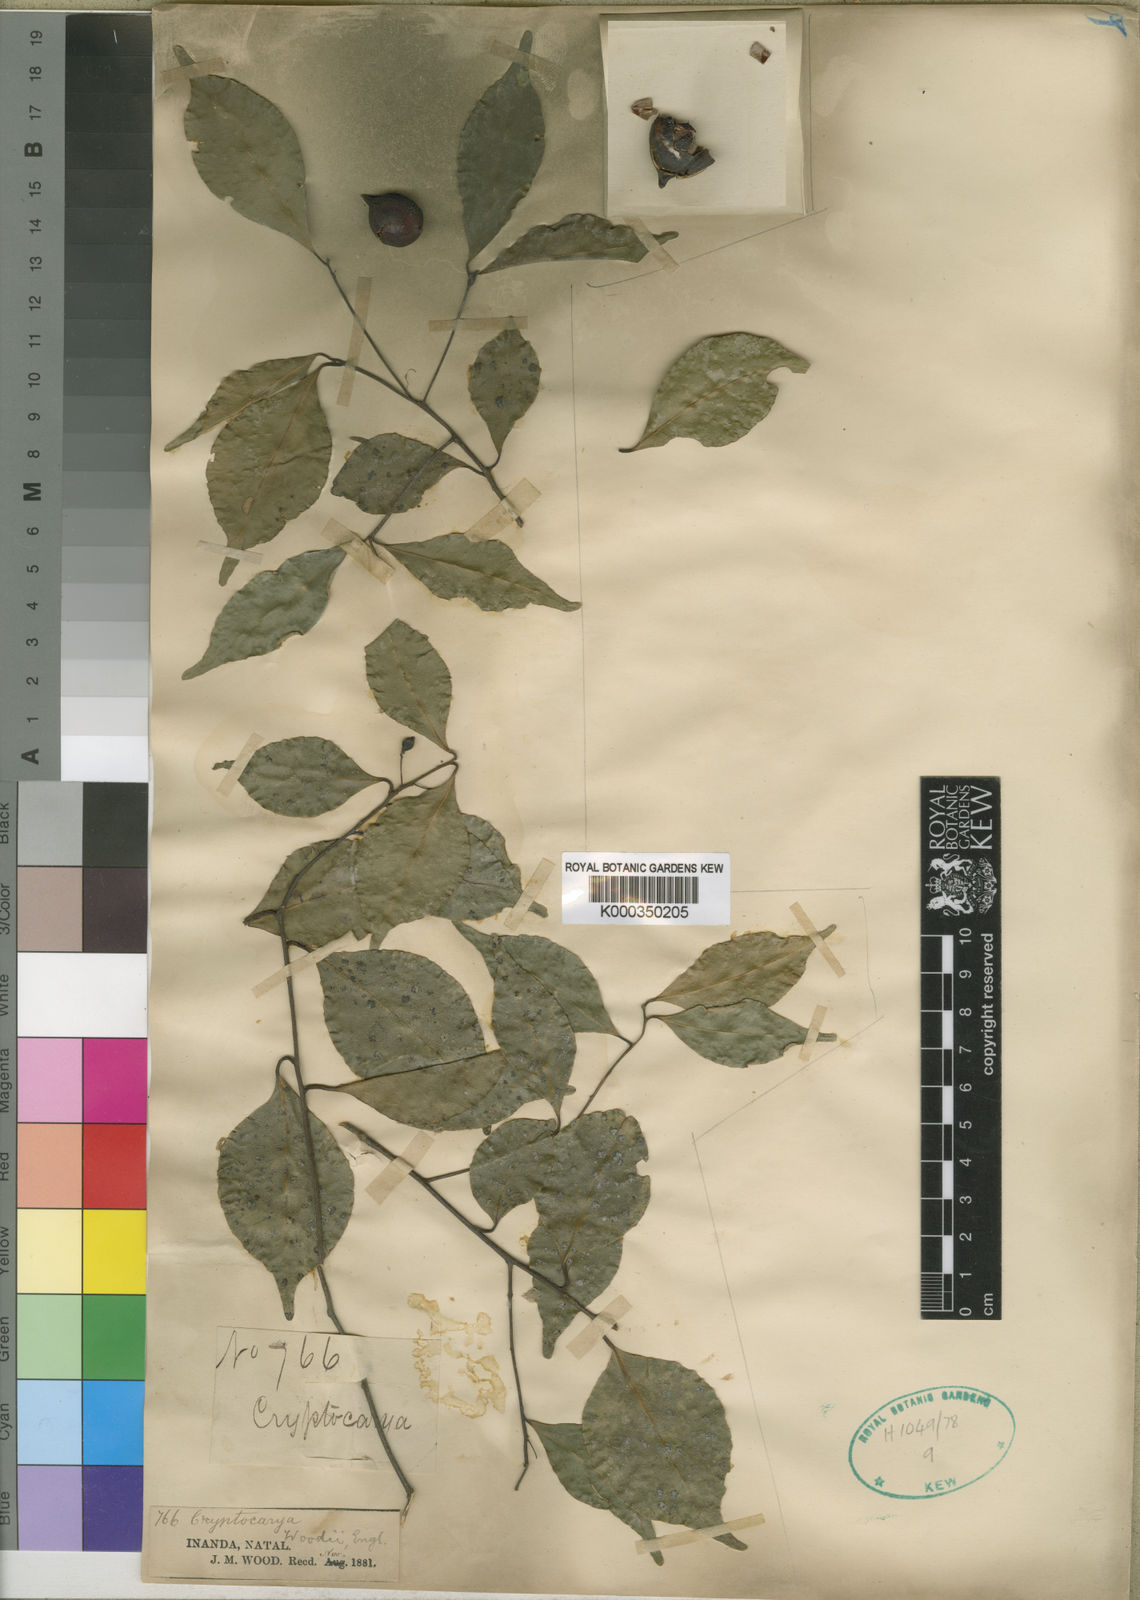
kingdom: Plantae
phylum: Tracheophyta
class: Magnoliopsida
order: Laurales
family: Lauraceae
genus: Cryptocarya
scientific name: Cryptocarya woodii
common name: Bastard camphor tree
